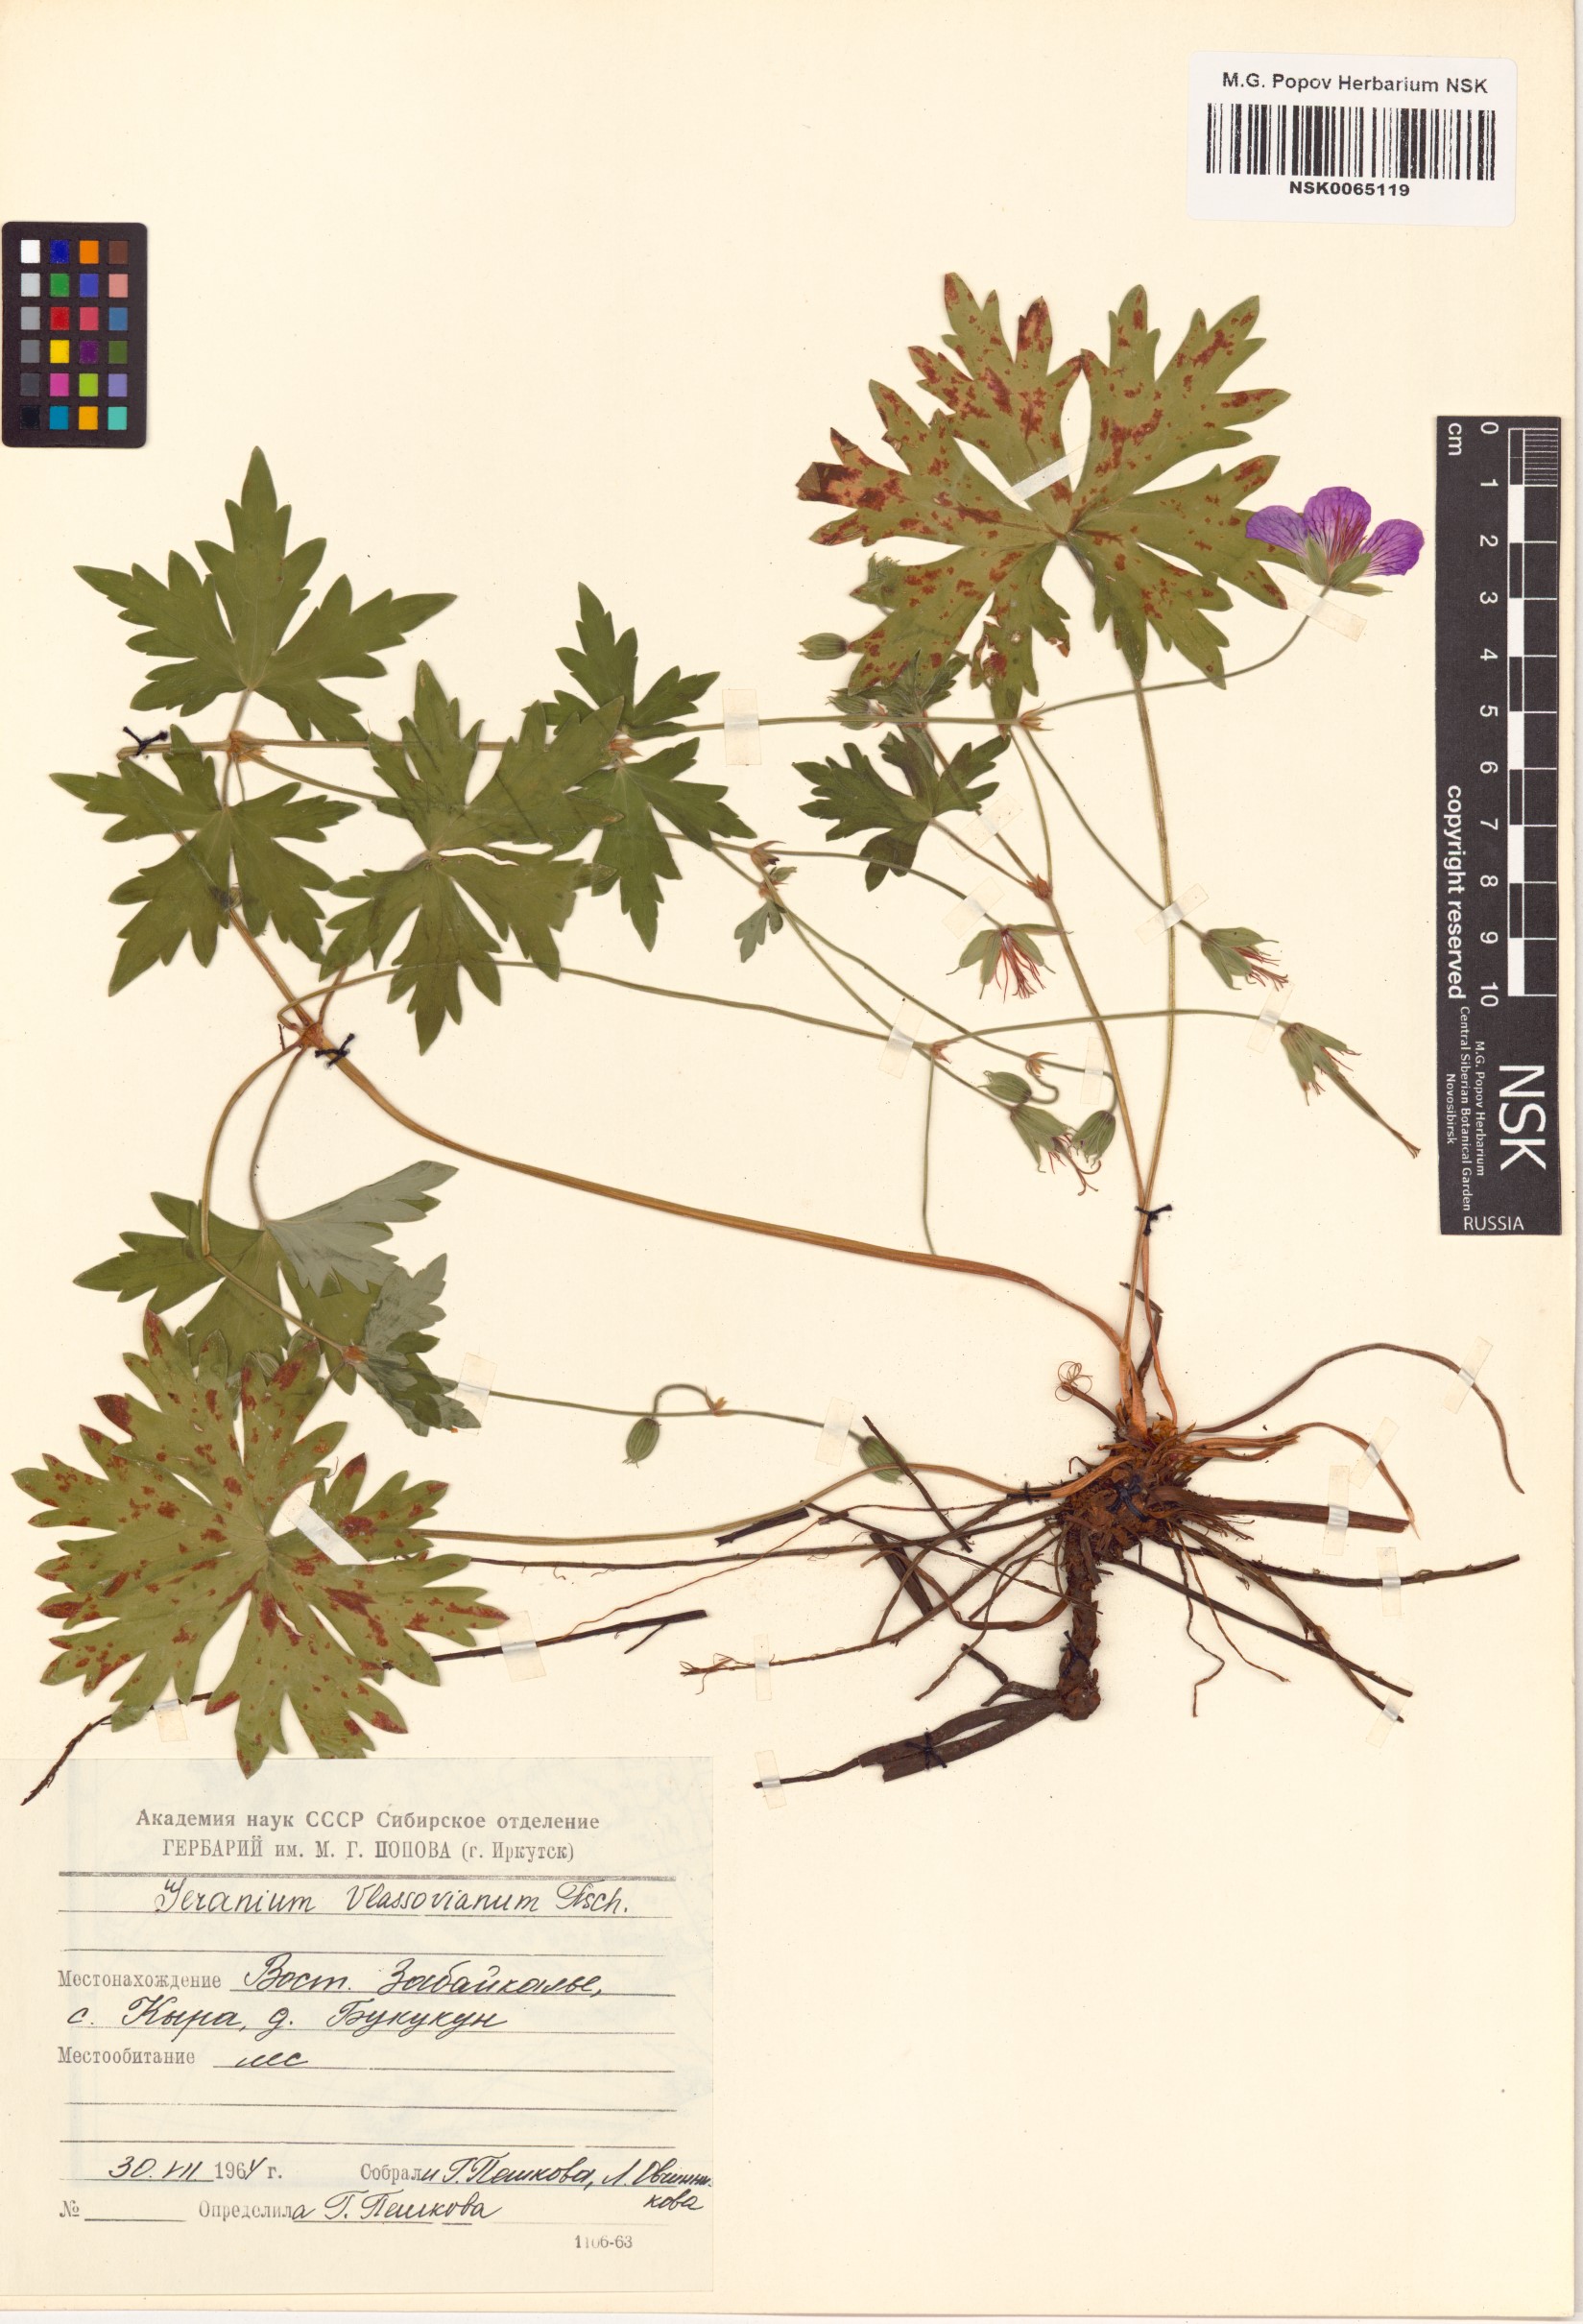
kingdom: Plantae
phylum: Tracheophyta
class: Magnoliopsida
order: Geraniales
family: Geraniaceae
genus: Geranium
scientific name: Geranium wlassovianum
